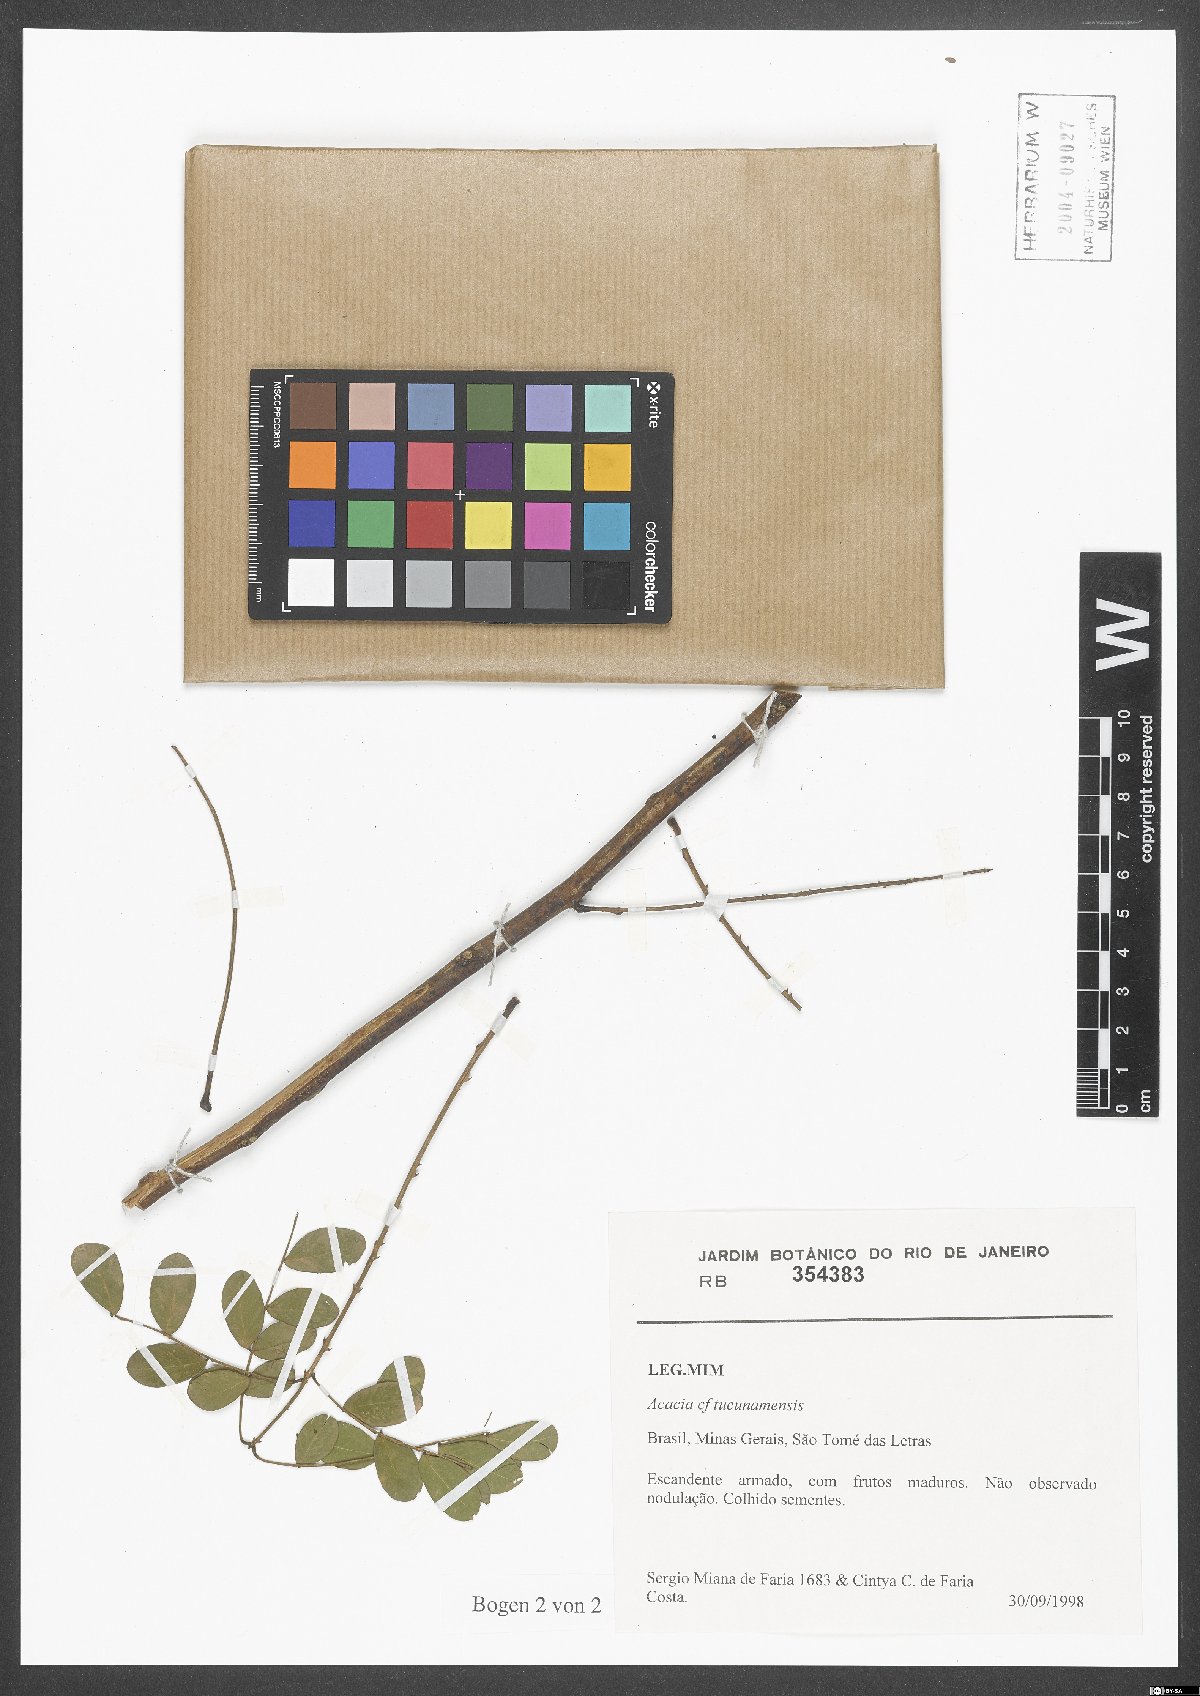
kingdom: Plantae
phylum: Tracheophyta
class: Magnoliopsida
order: Fabales
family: Fabaceae
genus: Senegalia
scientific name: Senegalia tucumanensis
